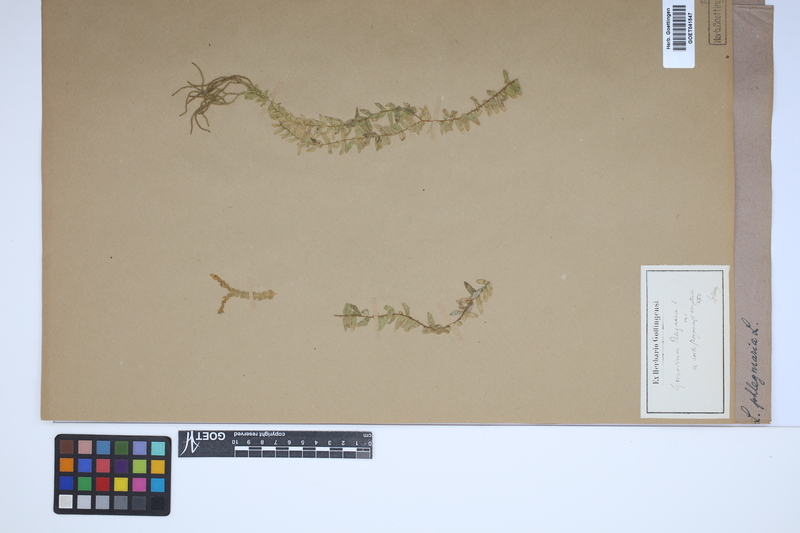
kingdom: Plantae
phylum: Tracheophyta
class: Lycopodiopsida
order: Lycopodiales
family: Lycopodiaceae
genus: Phlegmariurus
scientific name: Phlegmariurus phlegmaria
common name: Coarse tassel-fern
